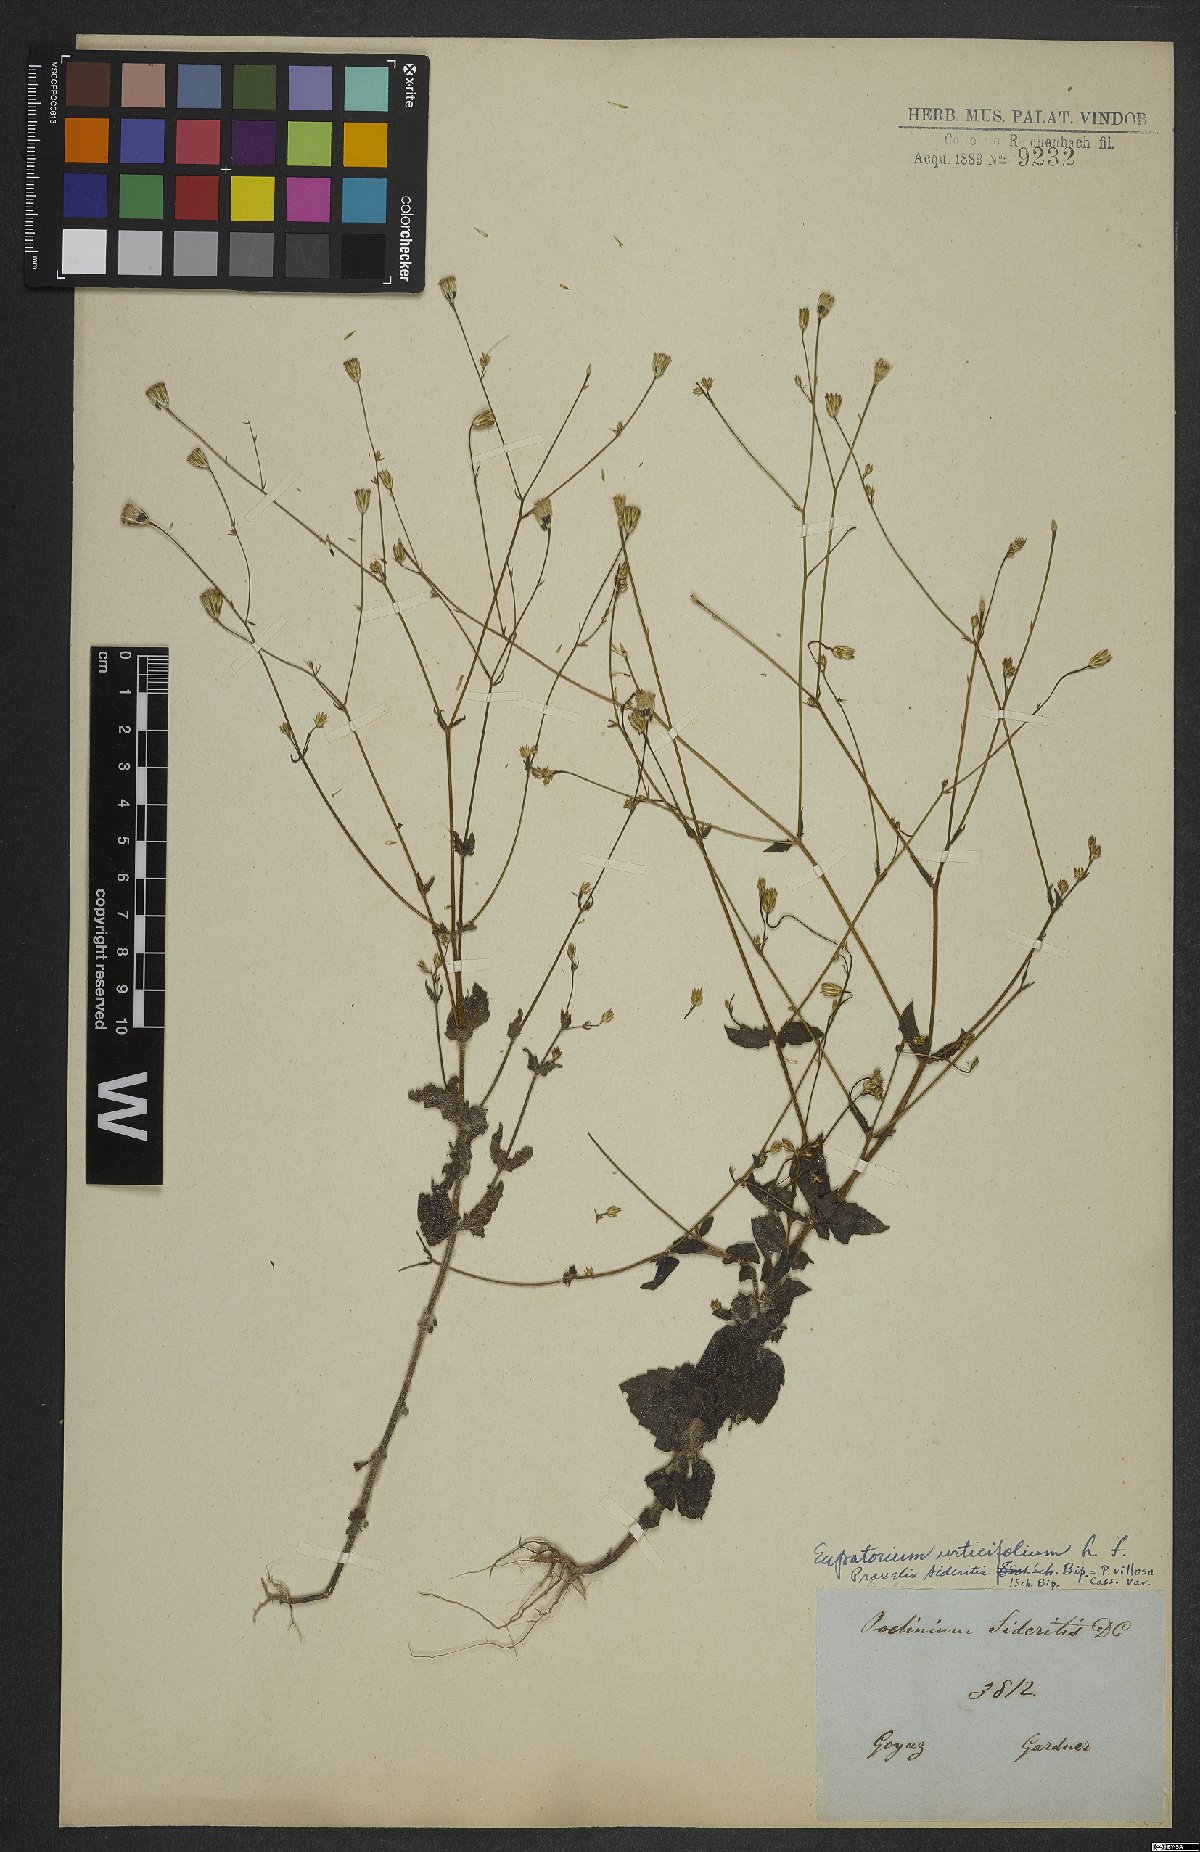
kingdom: Plantae
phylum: Tracheophyta
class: Magnoliopsida
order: Asterales
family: Asteraceae
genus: Ageratina
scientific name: Ageratina altissima
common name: White snakeroot
